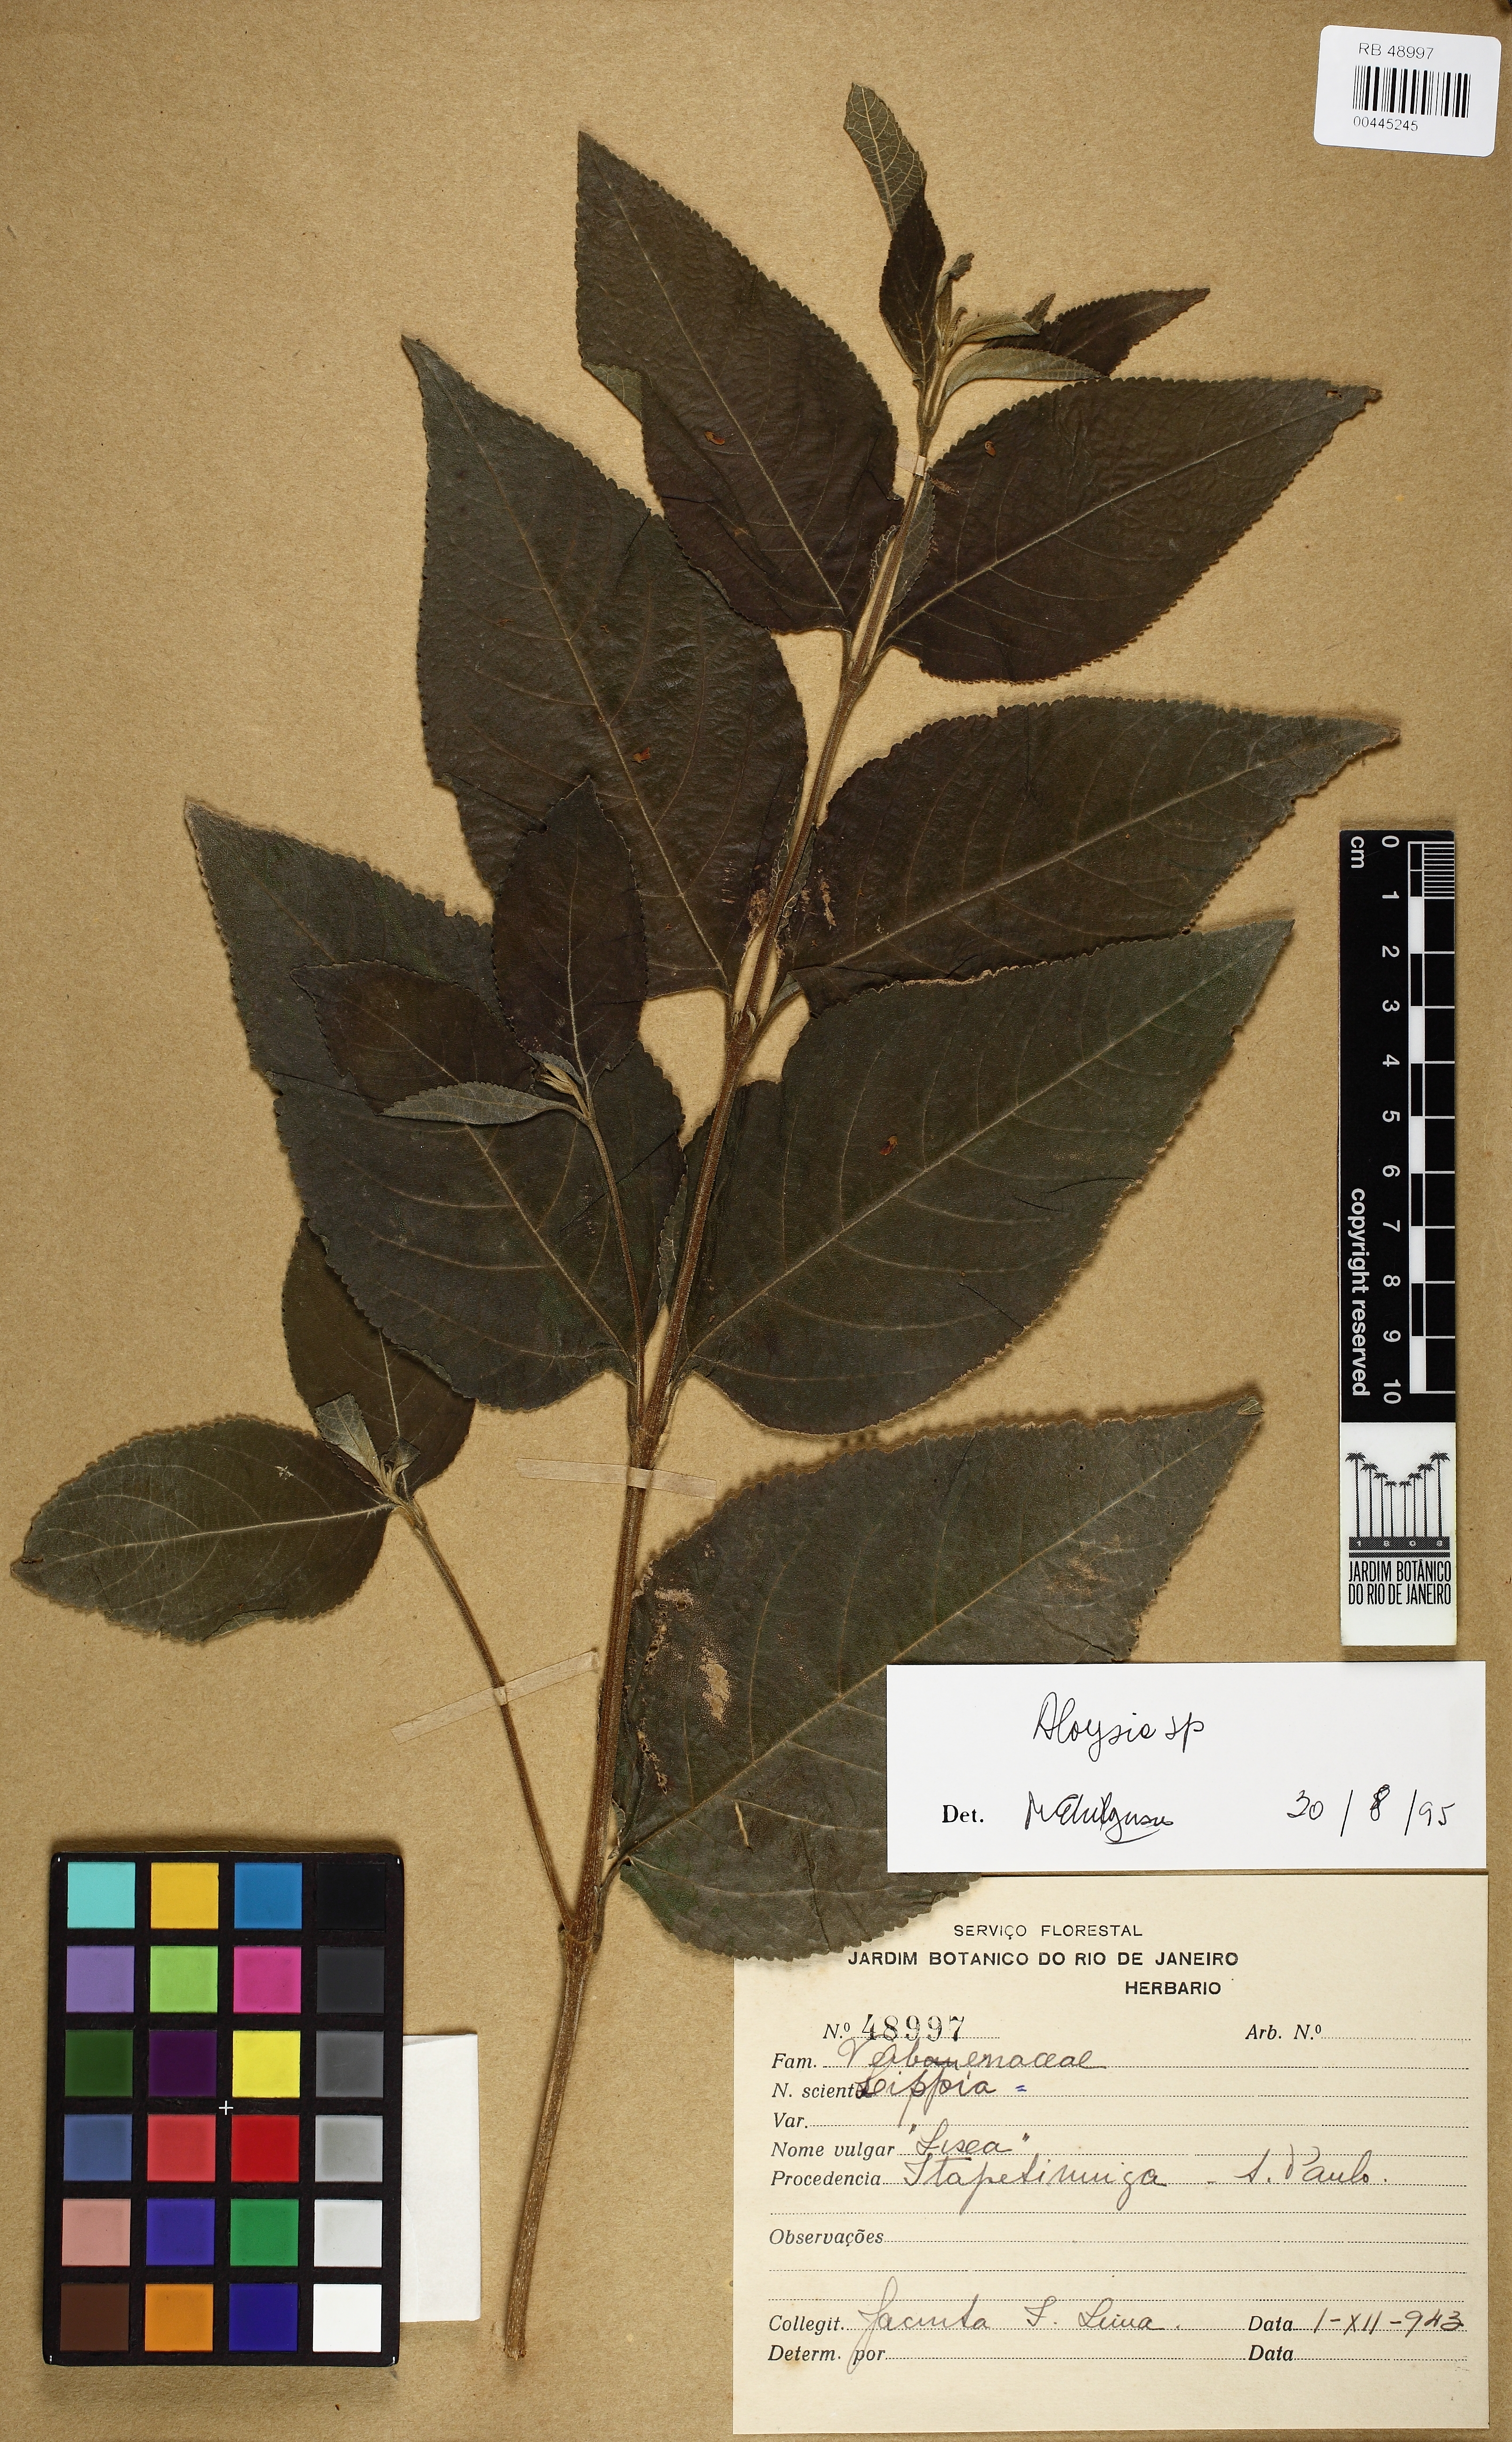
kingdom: Plantae
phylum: Tracheophyta
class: Magnoliopsida
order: Lamiales
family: Verbenaceae
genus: Aloysia
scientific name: Aloysia
